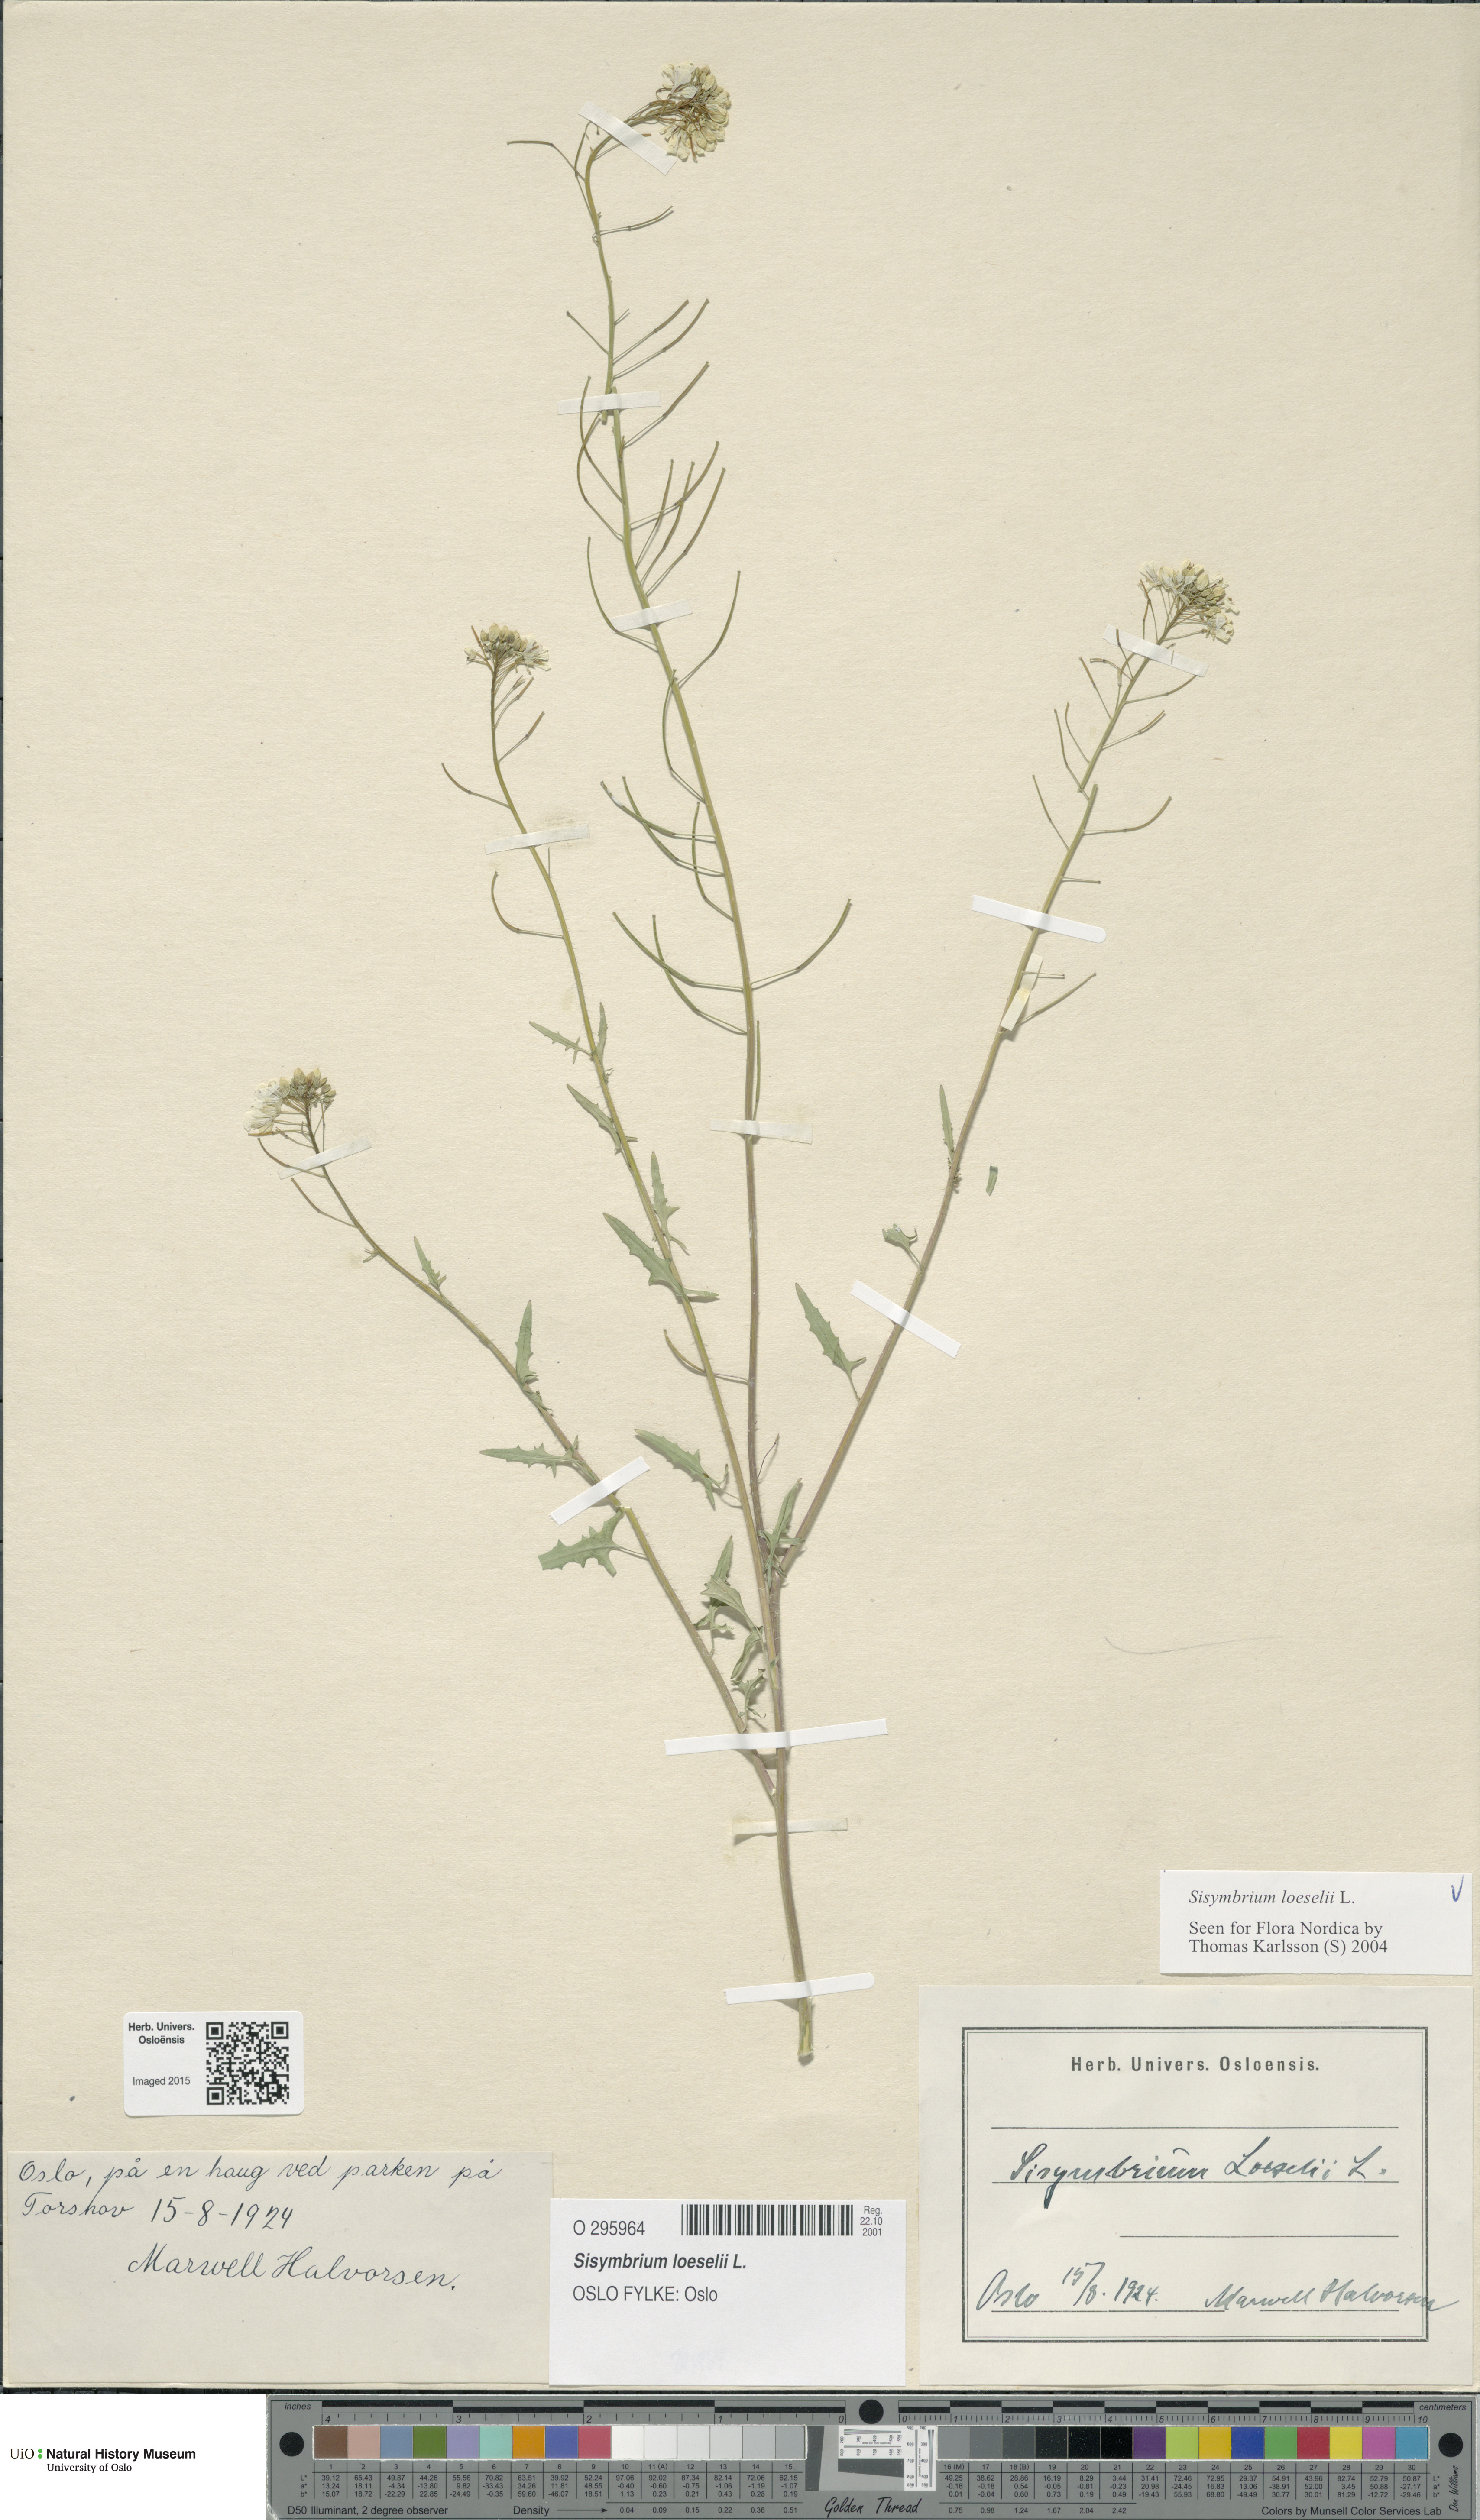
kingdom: Plantae
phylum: Tracheophyta
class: Magnoliopsida
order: Brassicales
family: Brassicaceae
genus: Sisymbrium
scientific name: Sisymbrium loeselii
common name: False london-rocket
